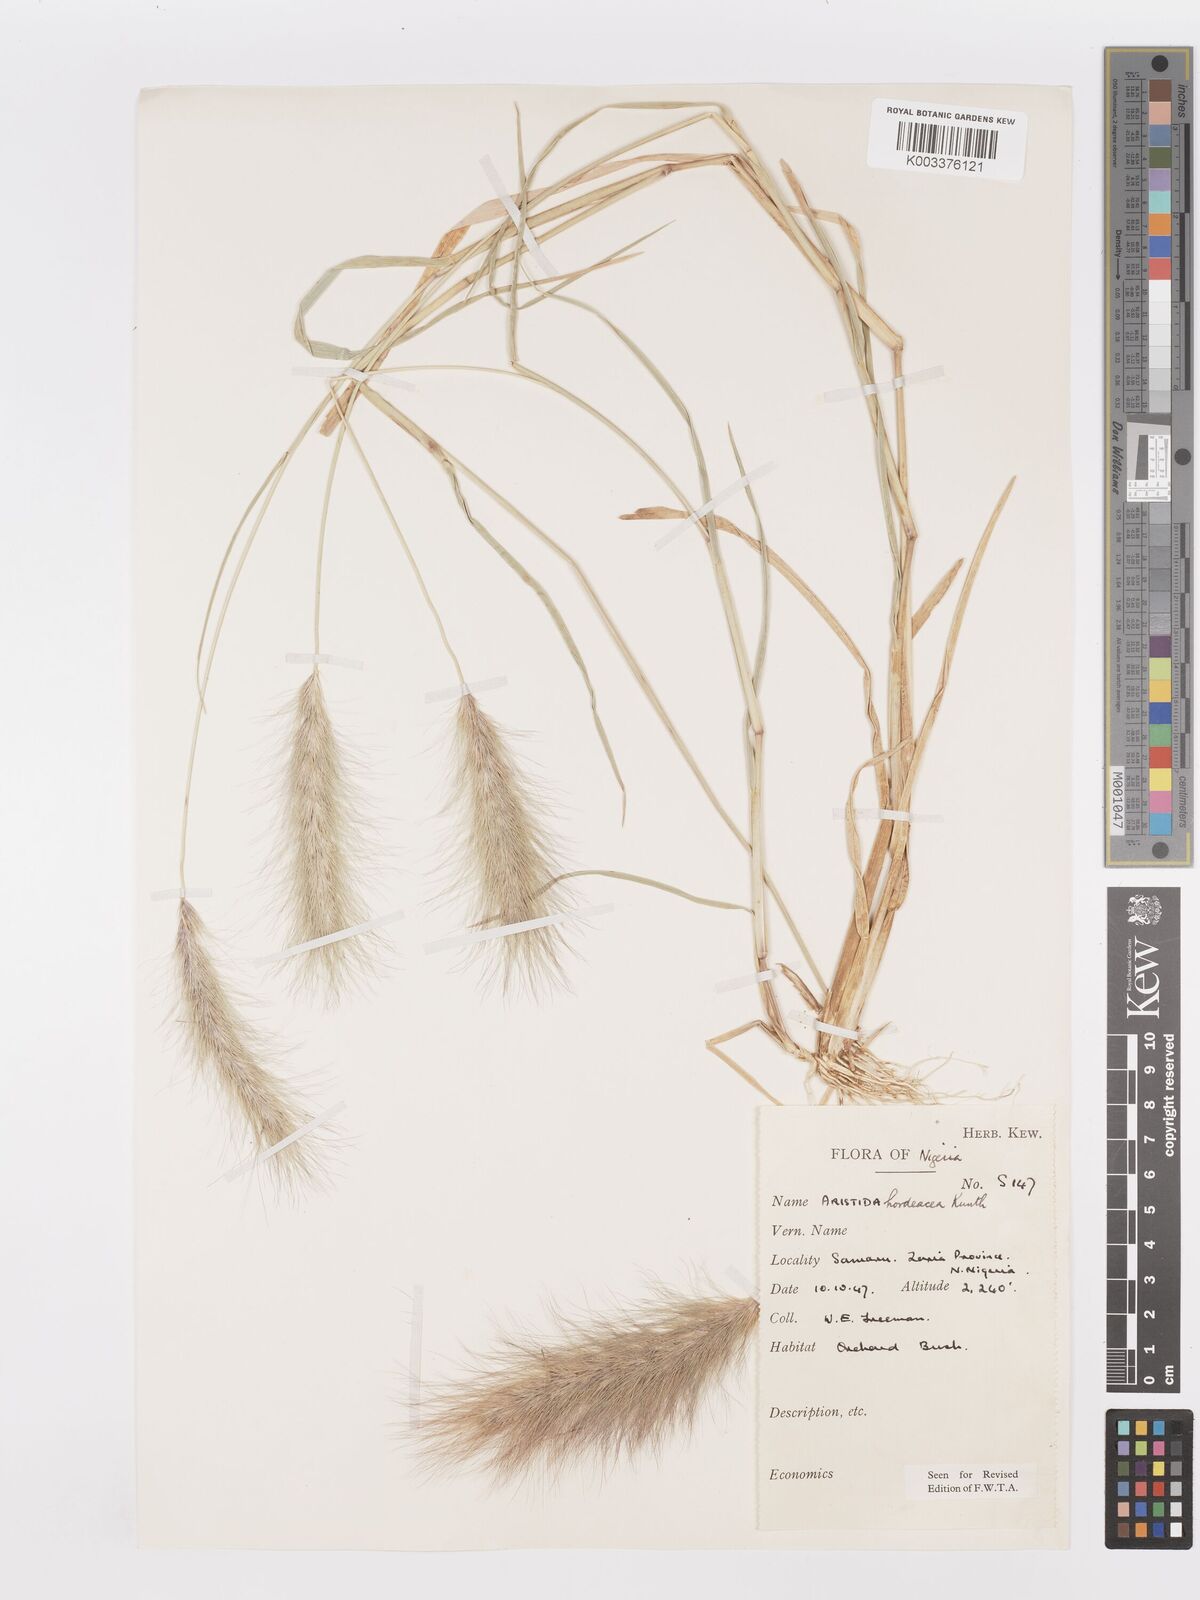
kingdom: Plantae
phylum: Tracheophyta
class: Liliopsida
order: Poales
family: Poaceae
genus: Aristida
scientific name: Aristida hordeacea
